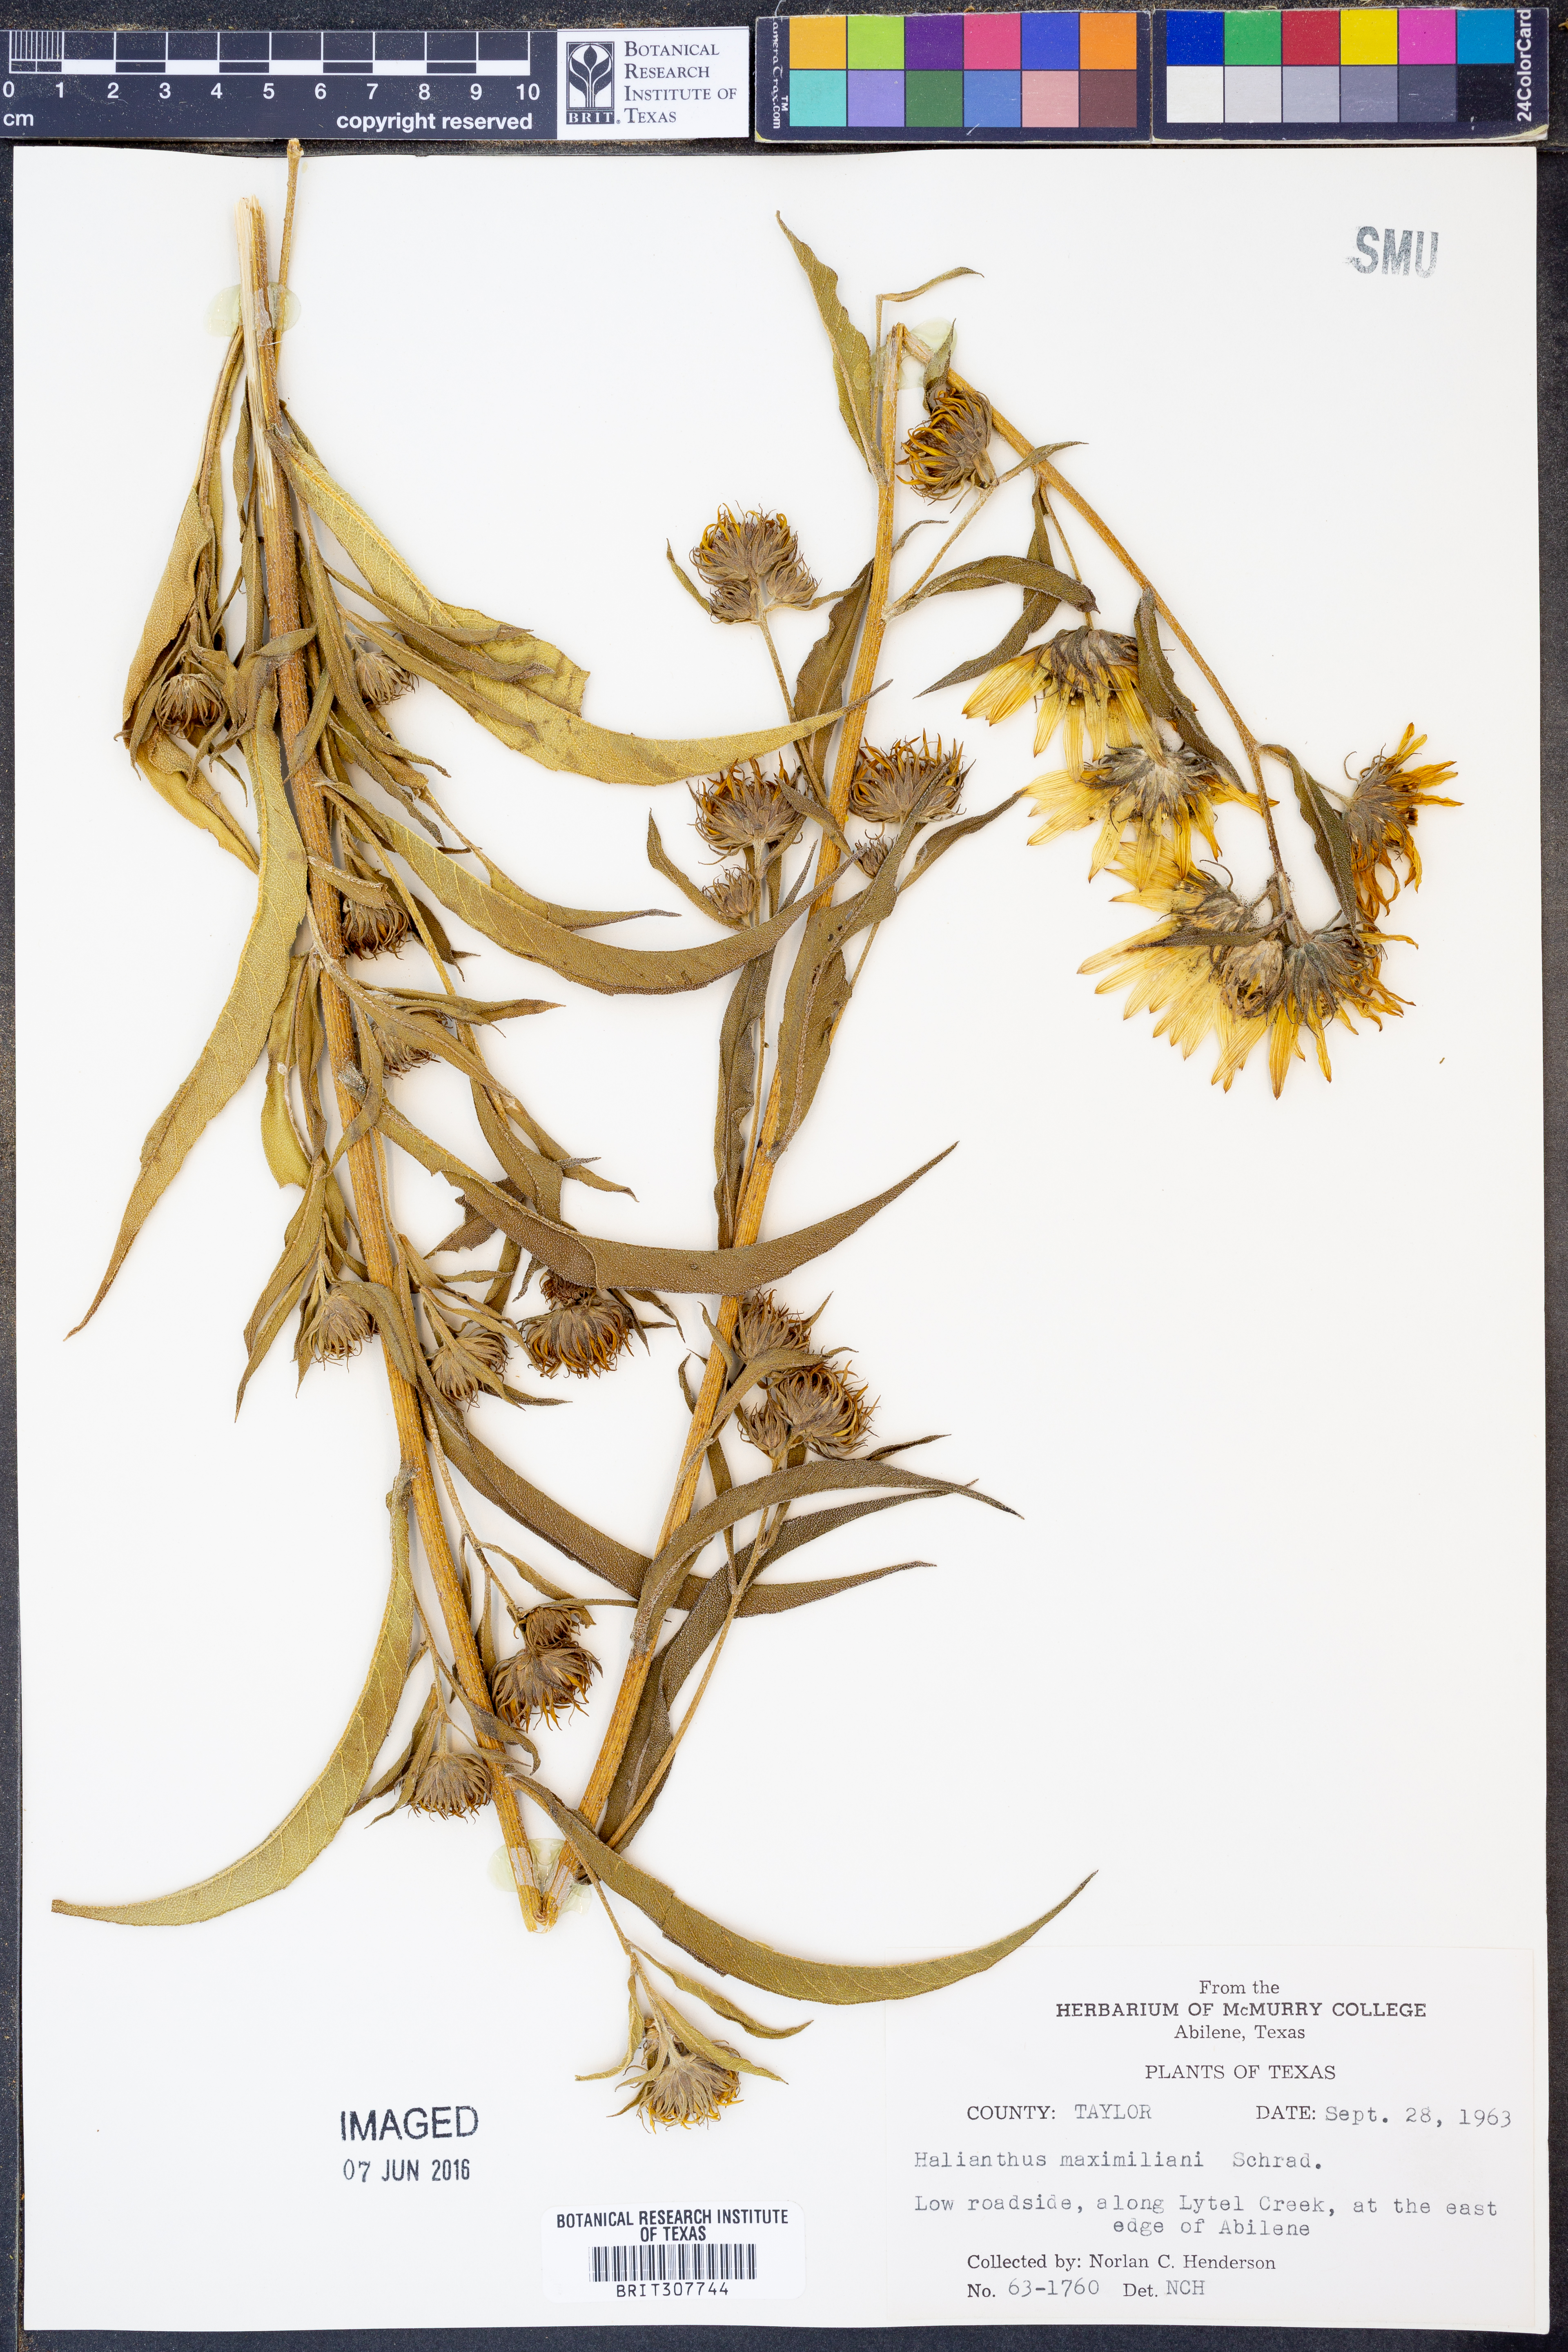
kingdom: Plantae
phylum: Tracheophyta
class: Magnoliopsida
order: Asterales
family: Asteraceae
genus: Helianthus
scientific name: Helianthus maximiliani
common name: Maximilian's sunflower
